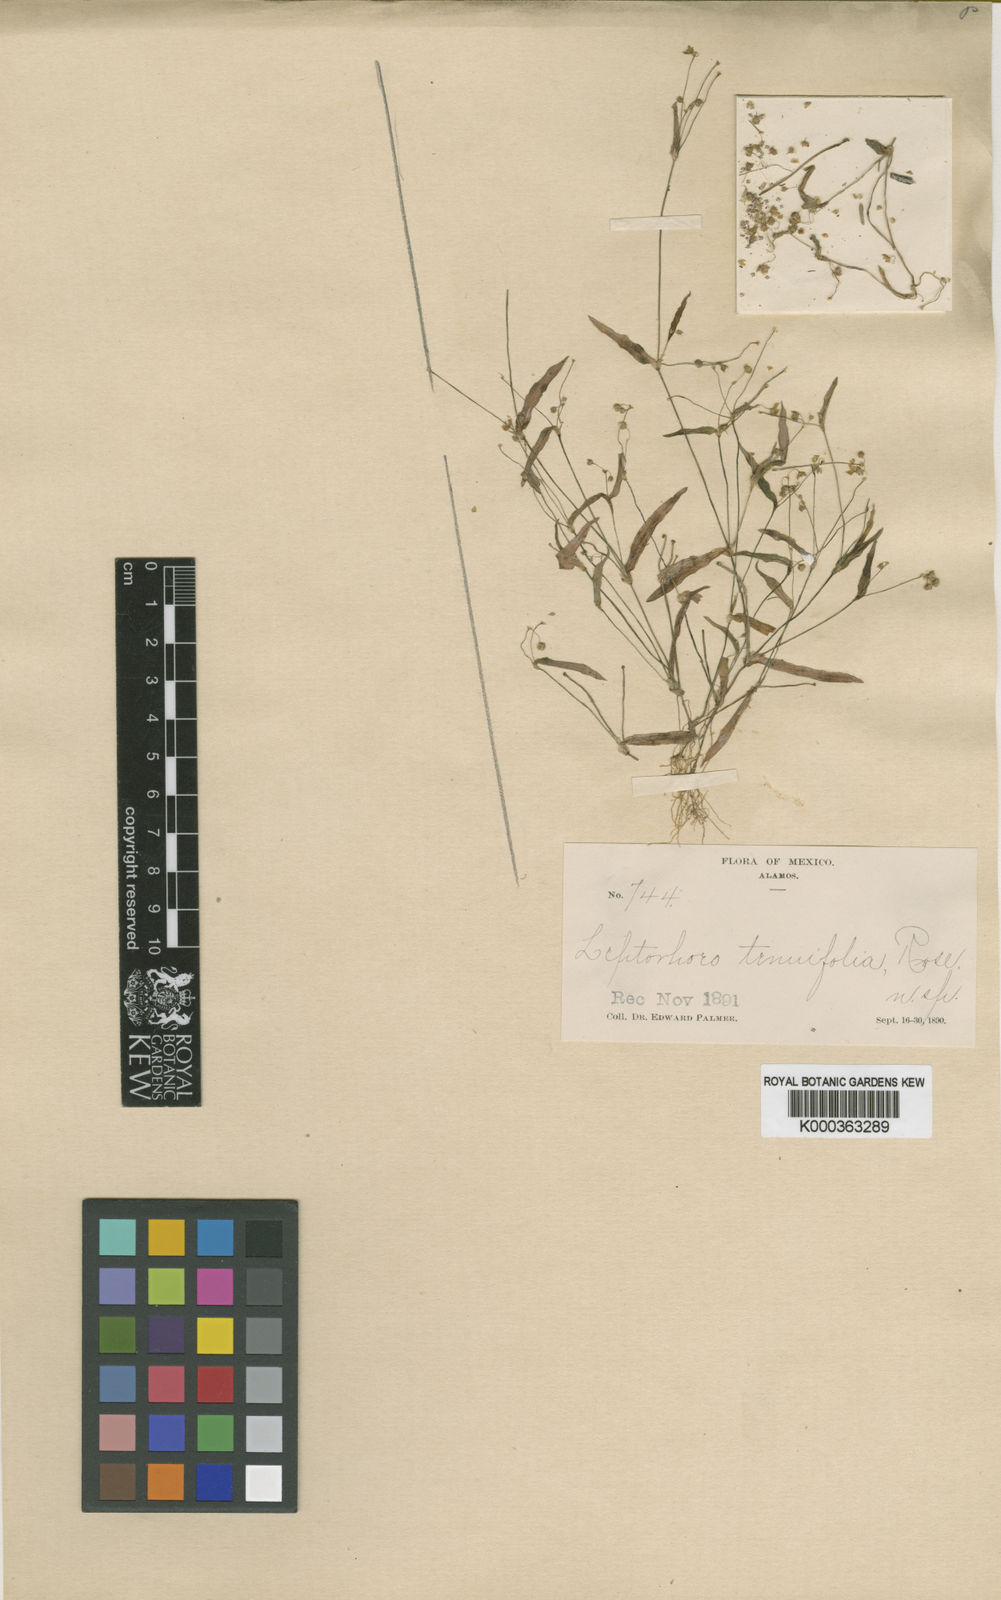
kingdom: Plantae
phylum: Tracheophyta
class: Liliopsida
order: Commelinales
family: Commelinaceae
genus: Callisia
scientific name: Callisia
